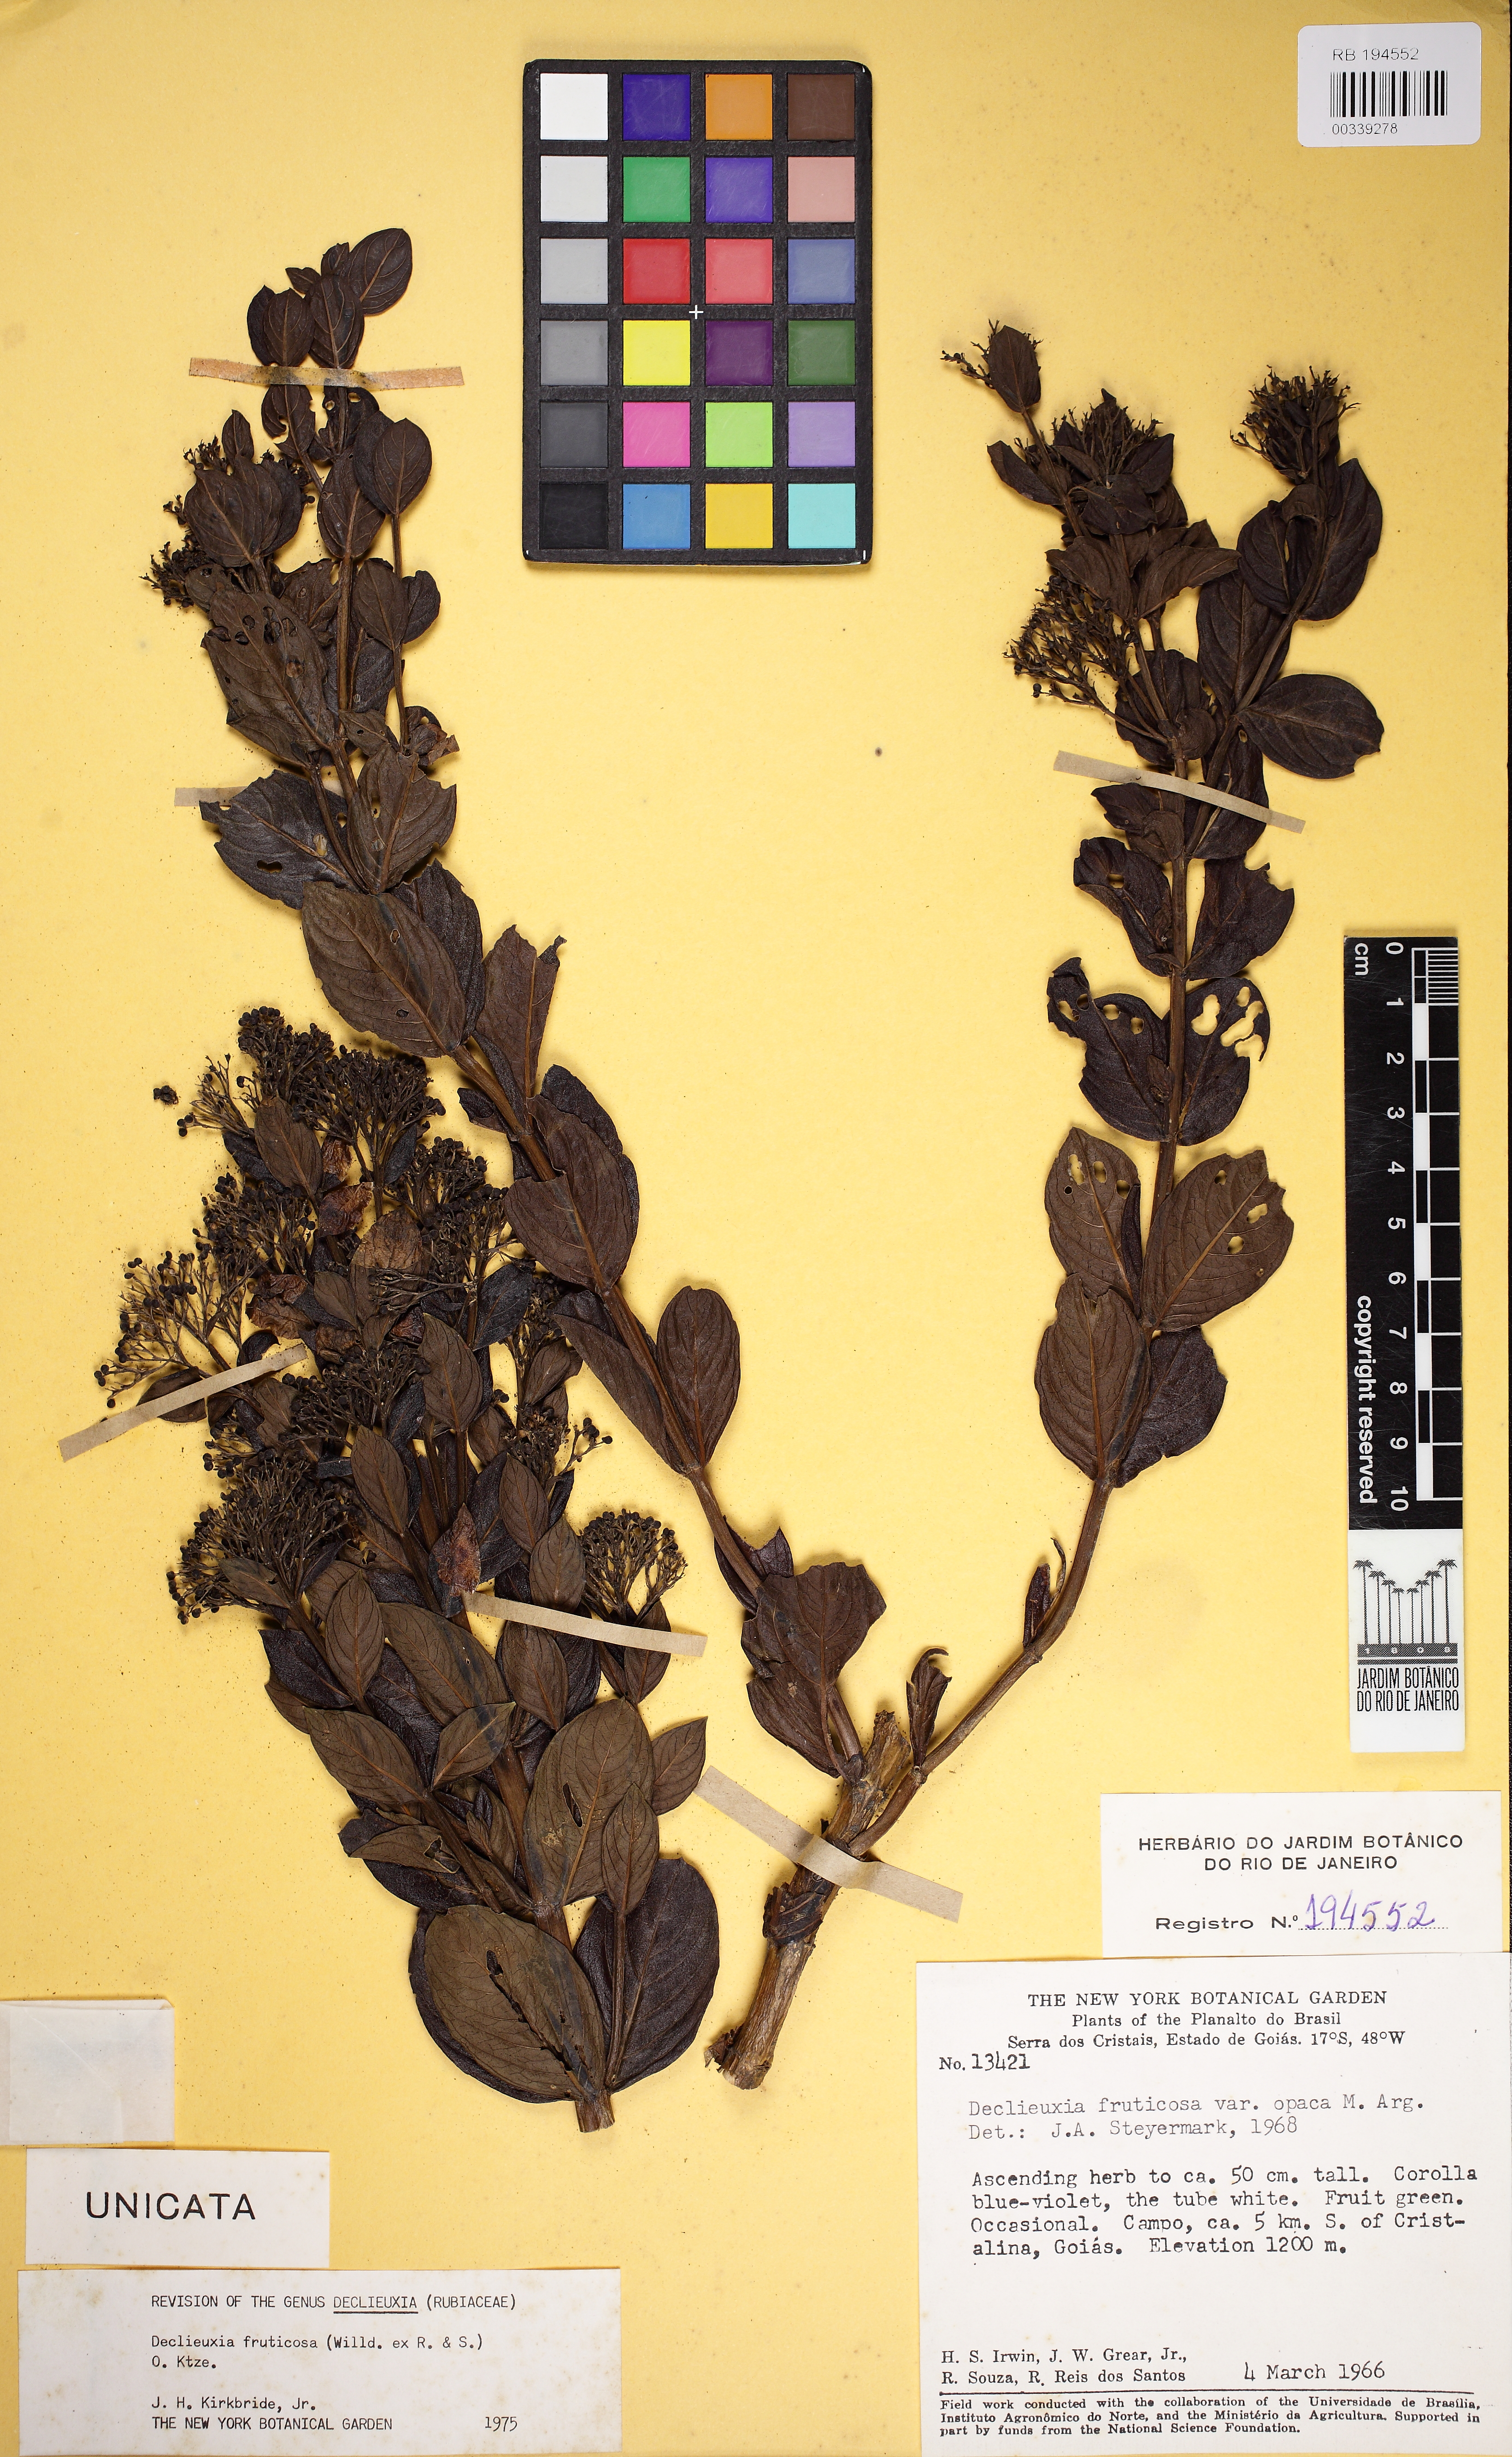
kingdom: Plantae
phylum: Tracheophyta
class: Magnoliopsida
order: Gentianales
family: Rubiaceae
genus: Declieuxia
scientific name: Declieuxia fruticosa
